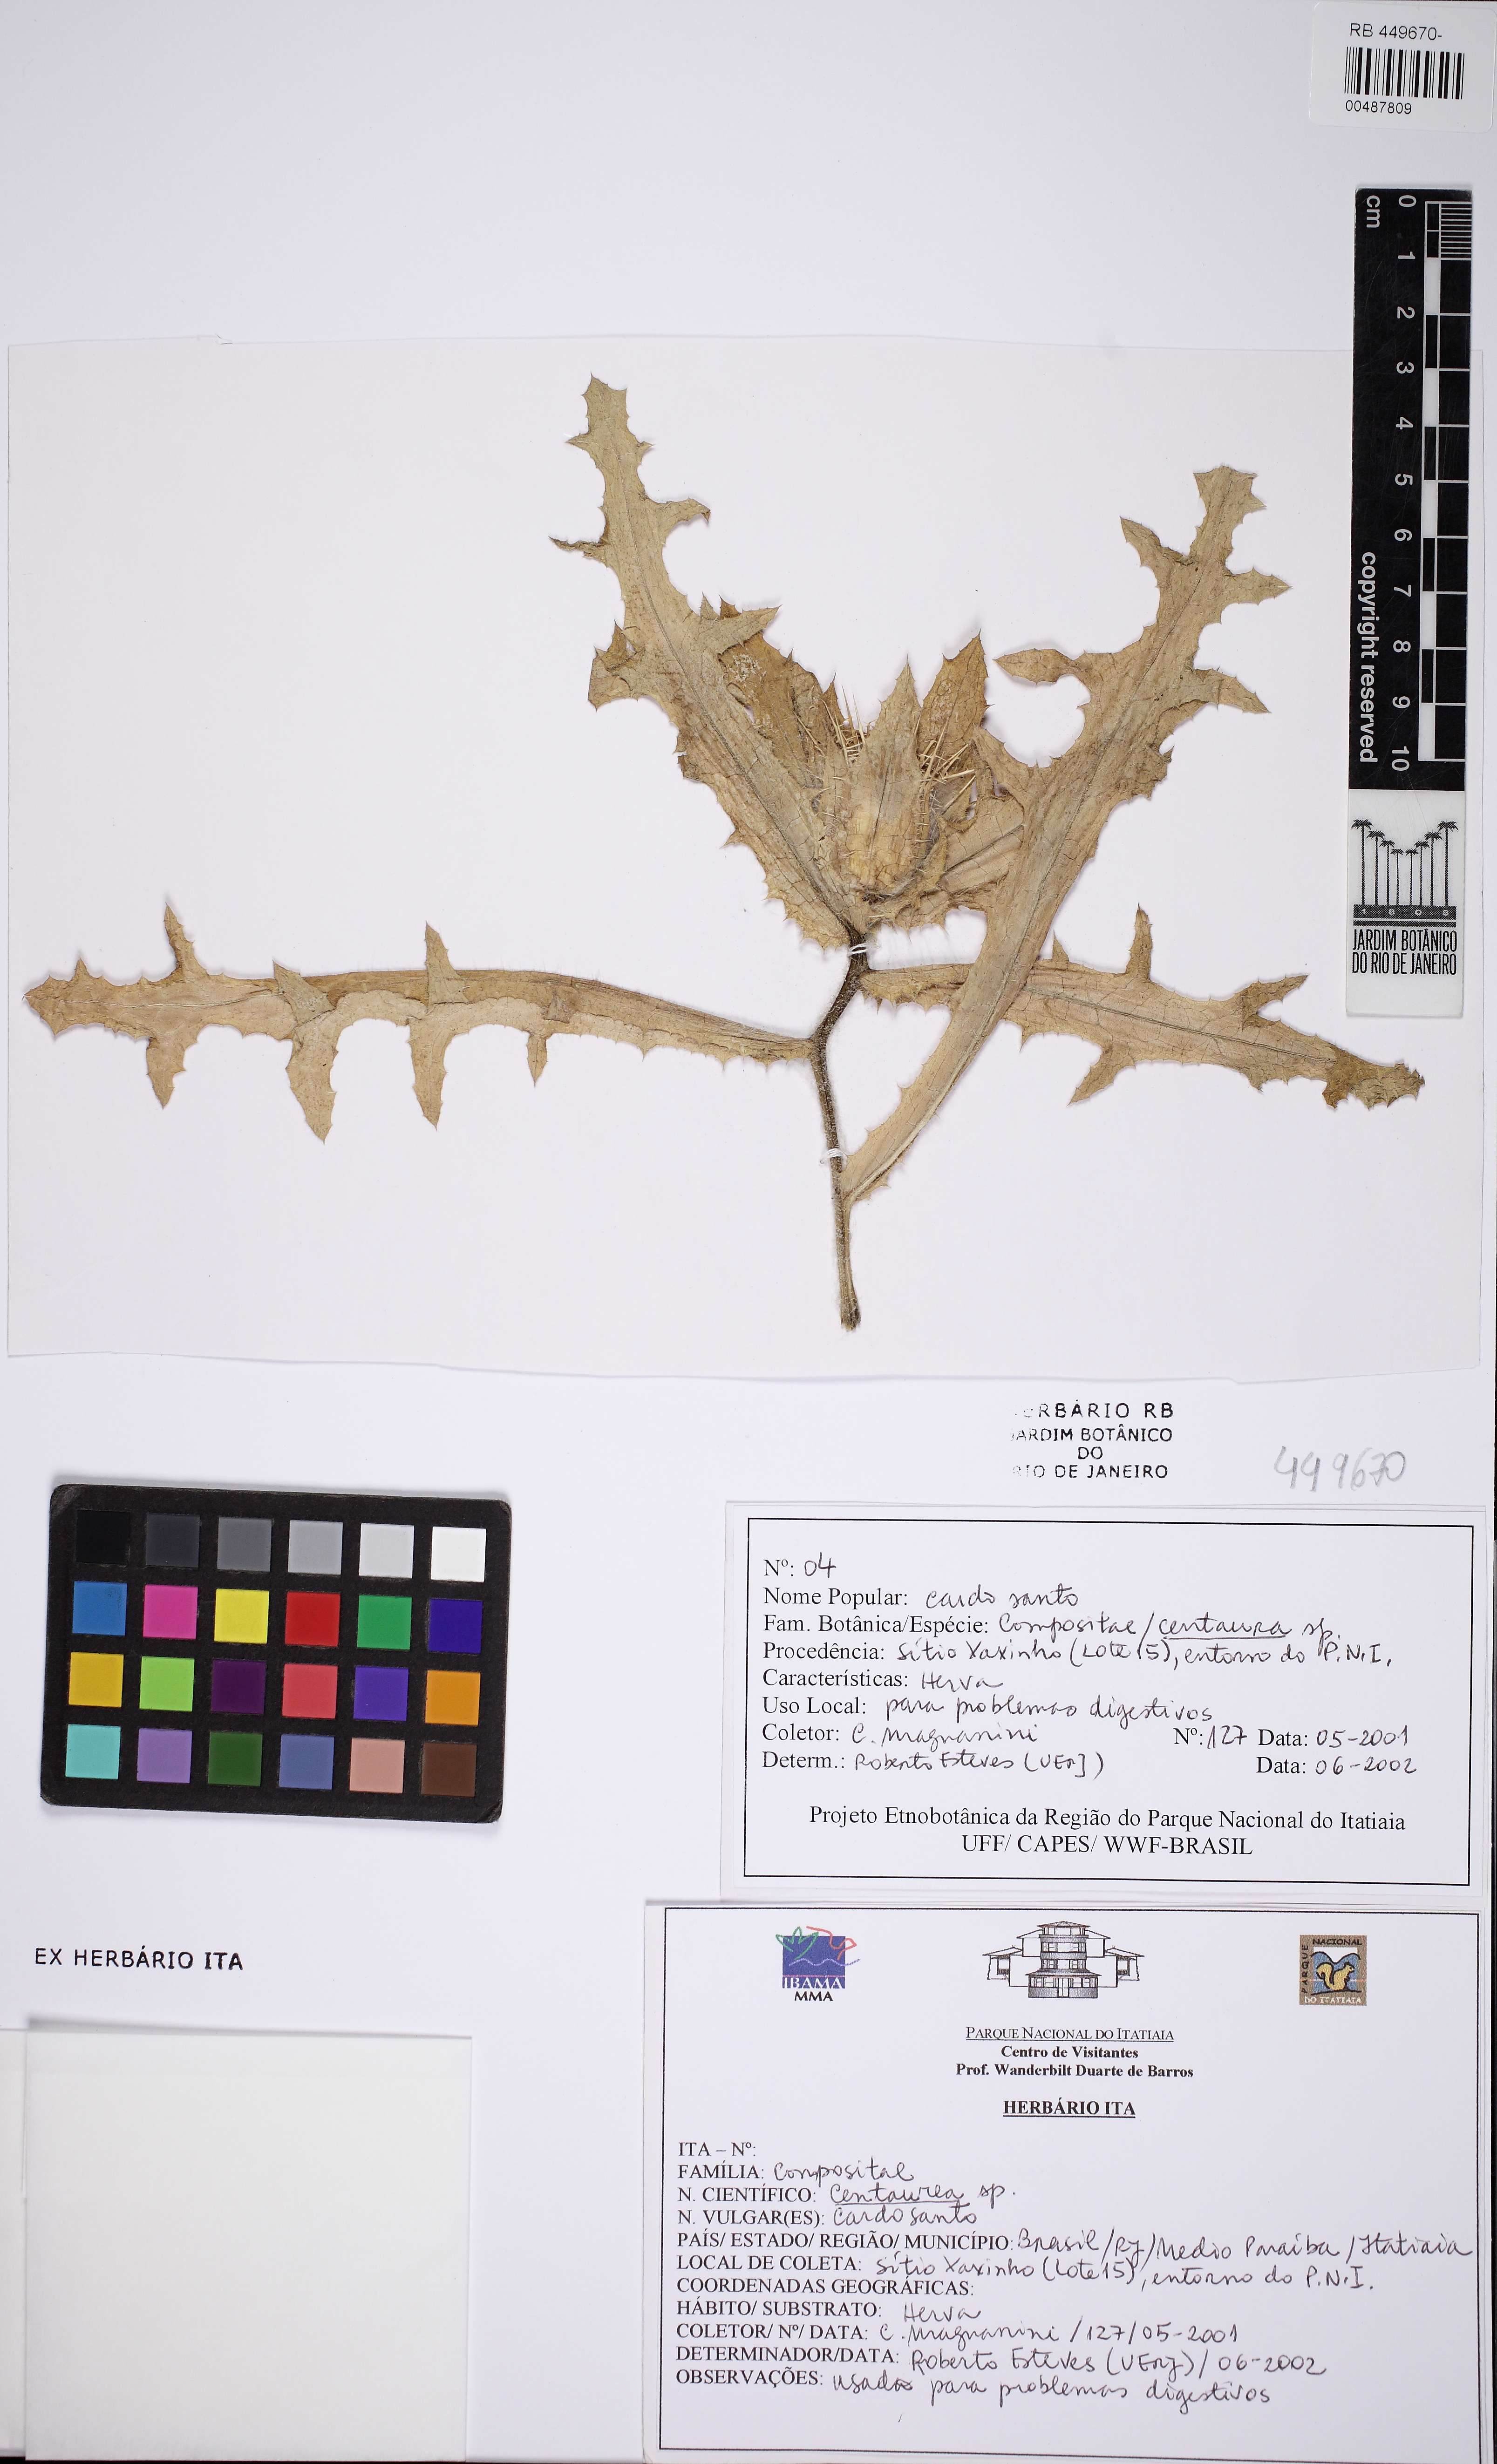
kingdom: Plantae
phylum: Tracheophyta
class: Magnoliopsida
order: Asterales
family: Asteraceae
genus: Centaurea
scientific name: Centaurea
